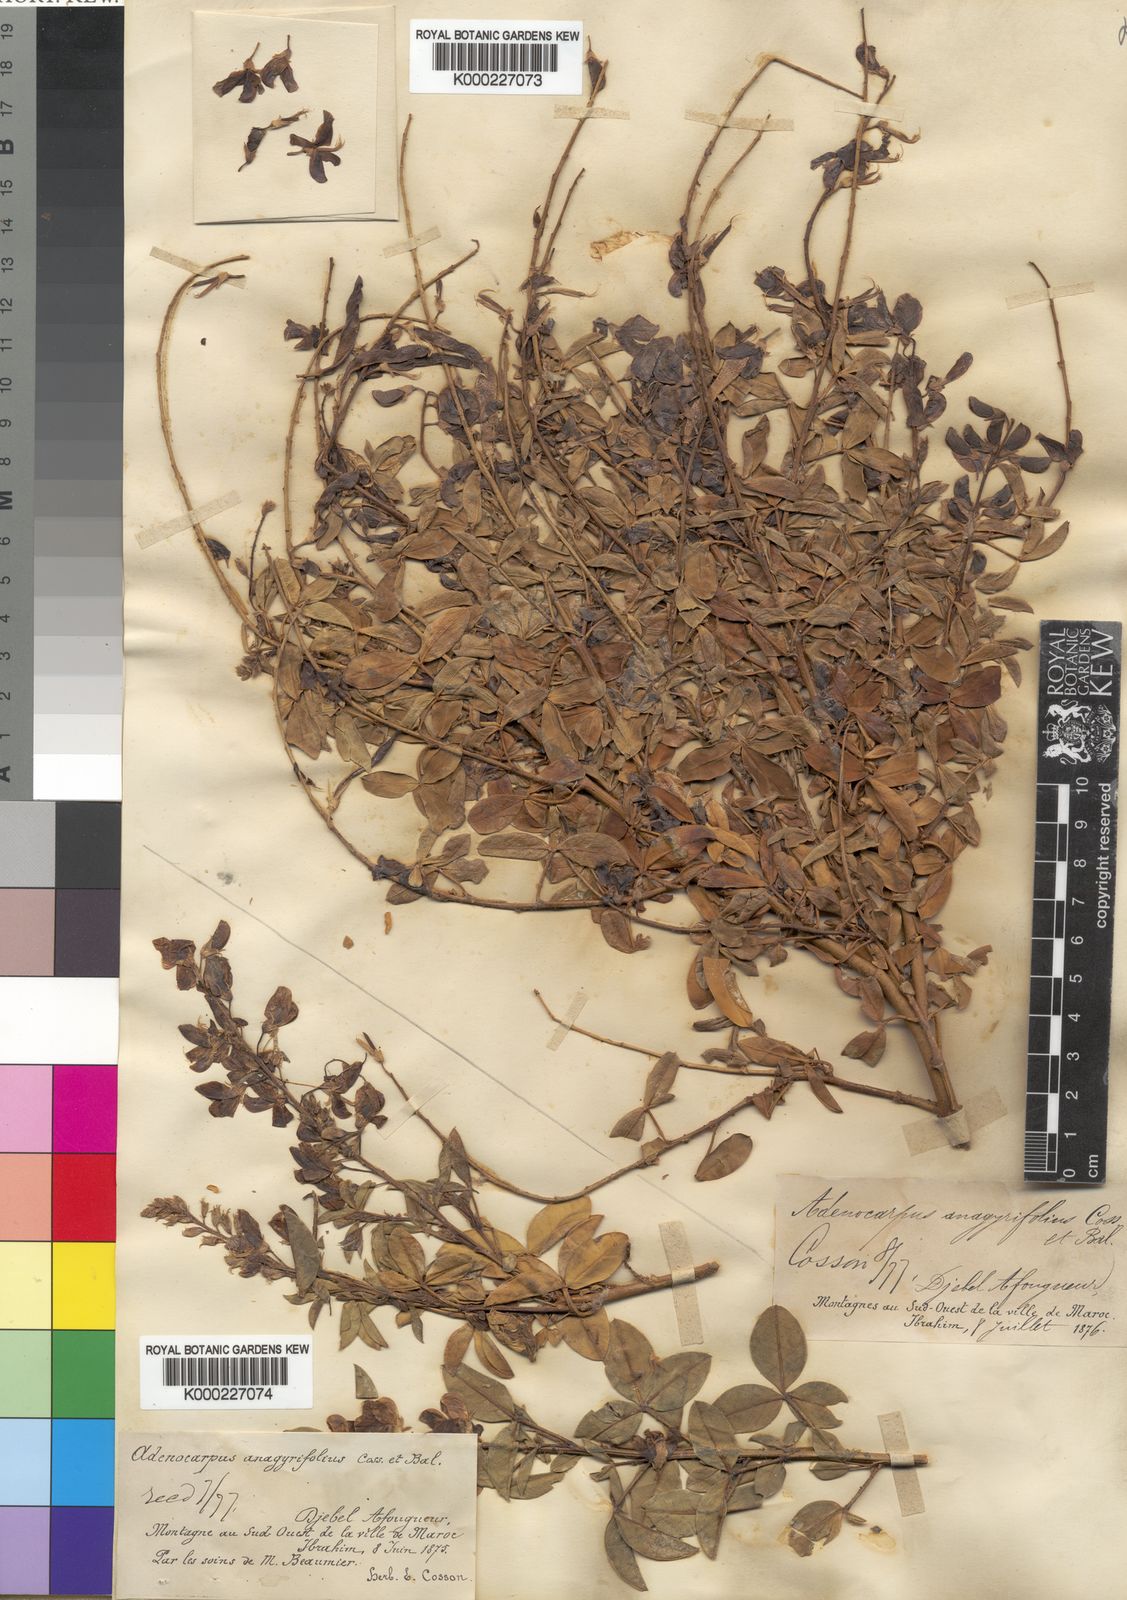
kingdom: Plantae
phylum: Tracheophyta
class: Magnoliopsida
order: Fabales
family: Fabaceae
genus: Adenocarpus
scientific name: Adenocarpus anagyrifolius
